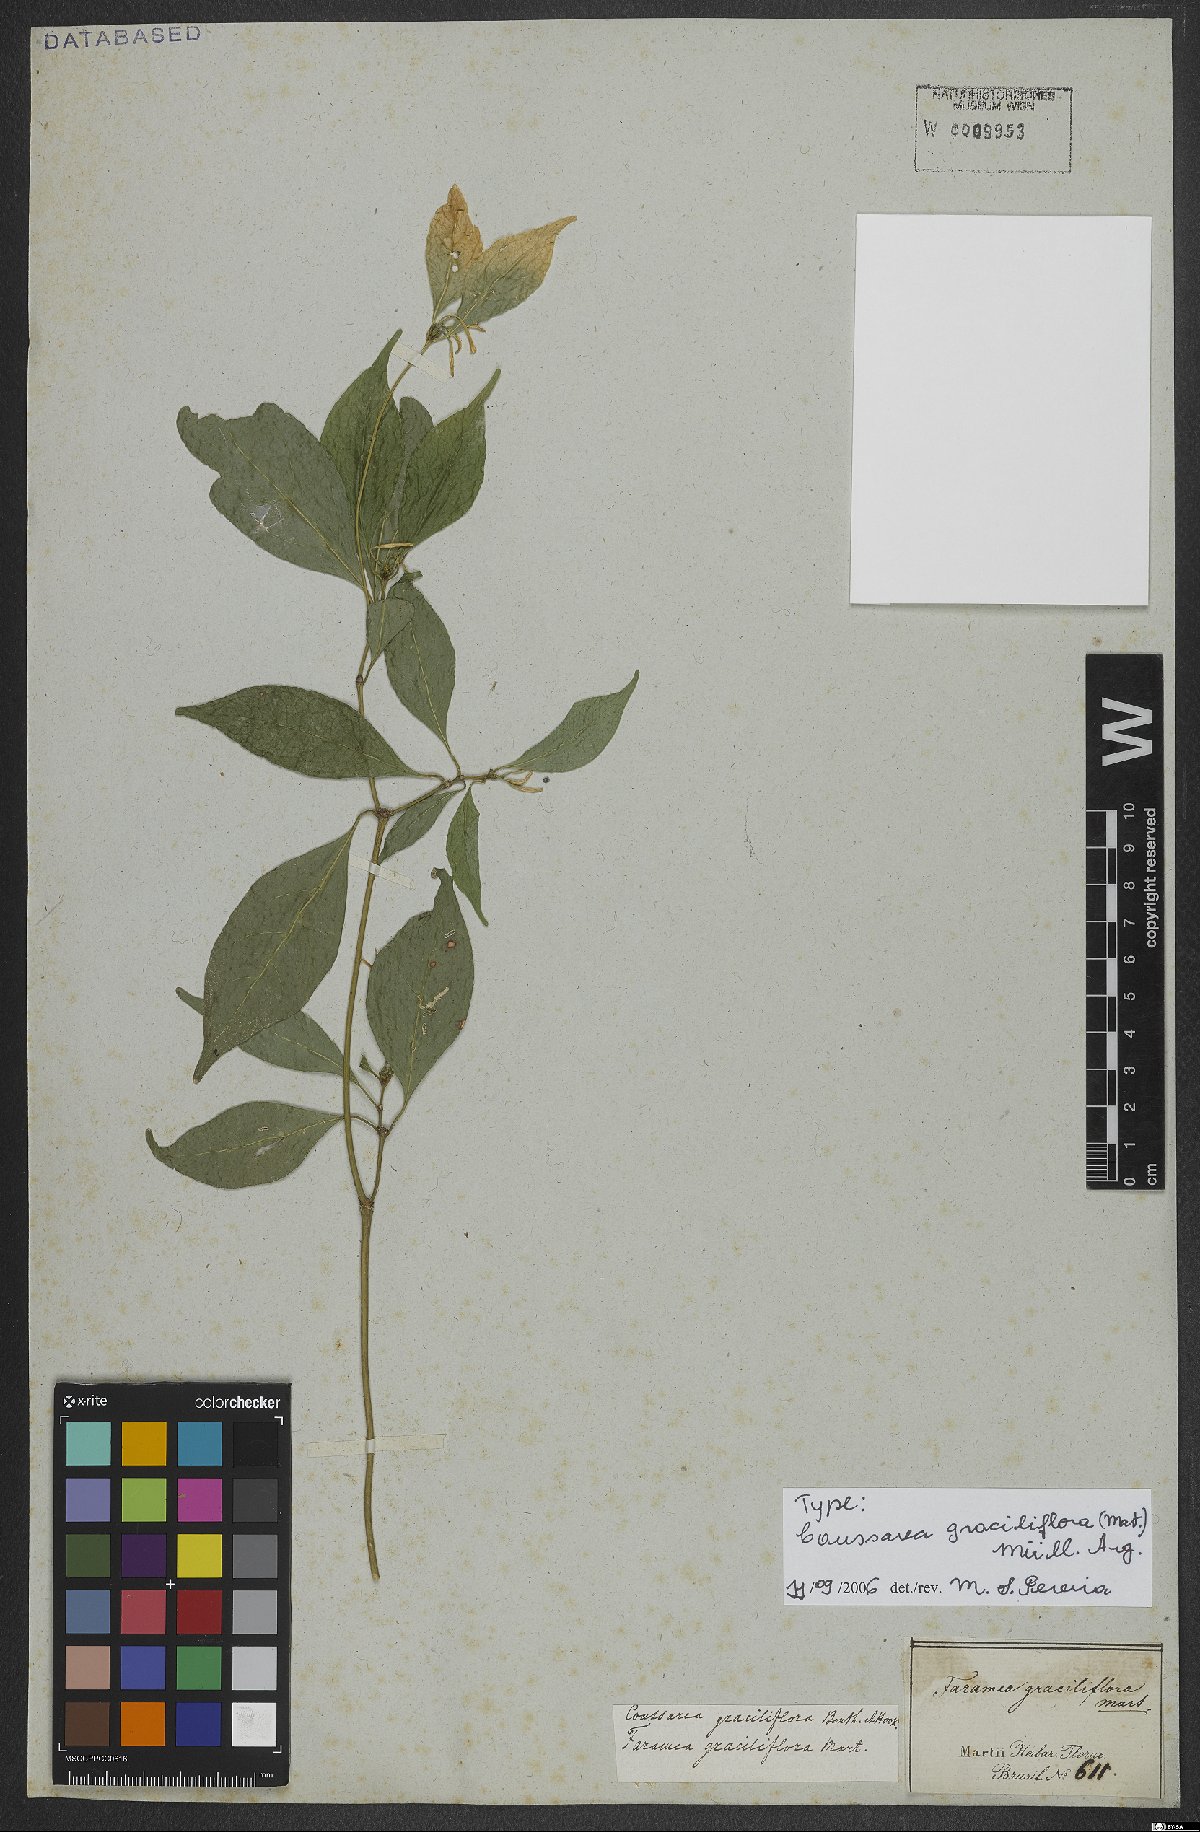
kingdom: Plantae
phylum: Tracheophyta
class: Magnoliopsida
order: Gentianales
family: Rubiaceae
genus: Coussarea
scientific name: Coussarea graciliflora
